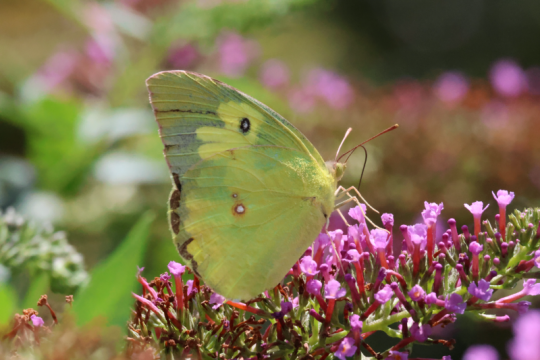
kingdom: Animalia
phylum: Arthropoda
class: Insecta
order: Lepidoptera
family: Pieridae
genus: Zerene
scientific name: Zerene cesonia
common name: Southern Dogface
